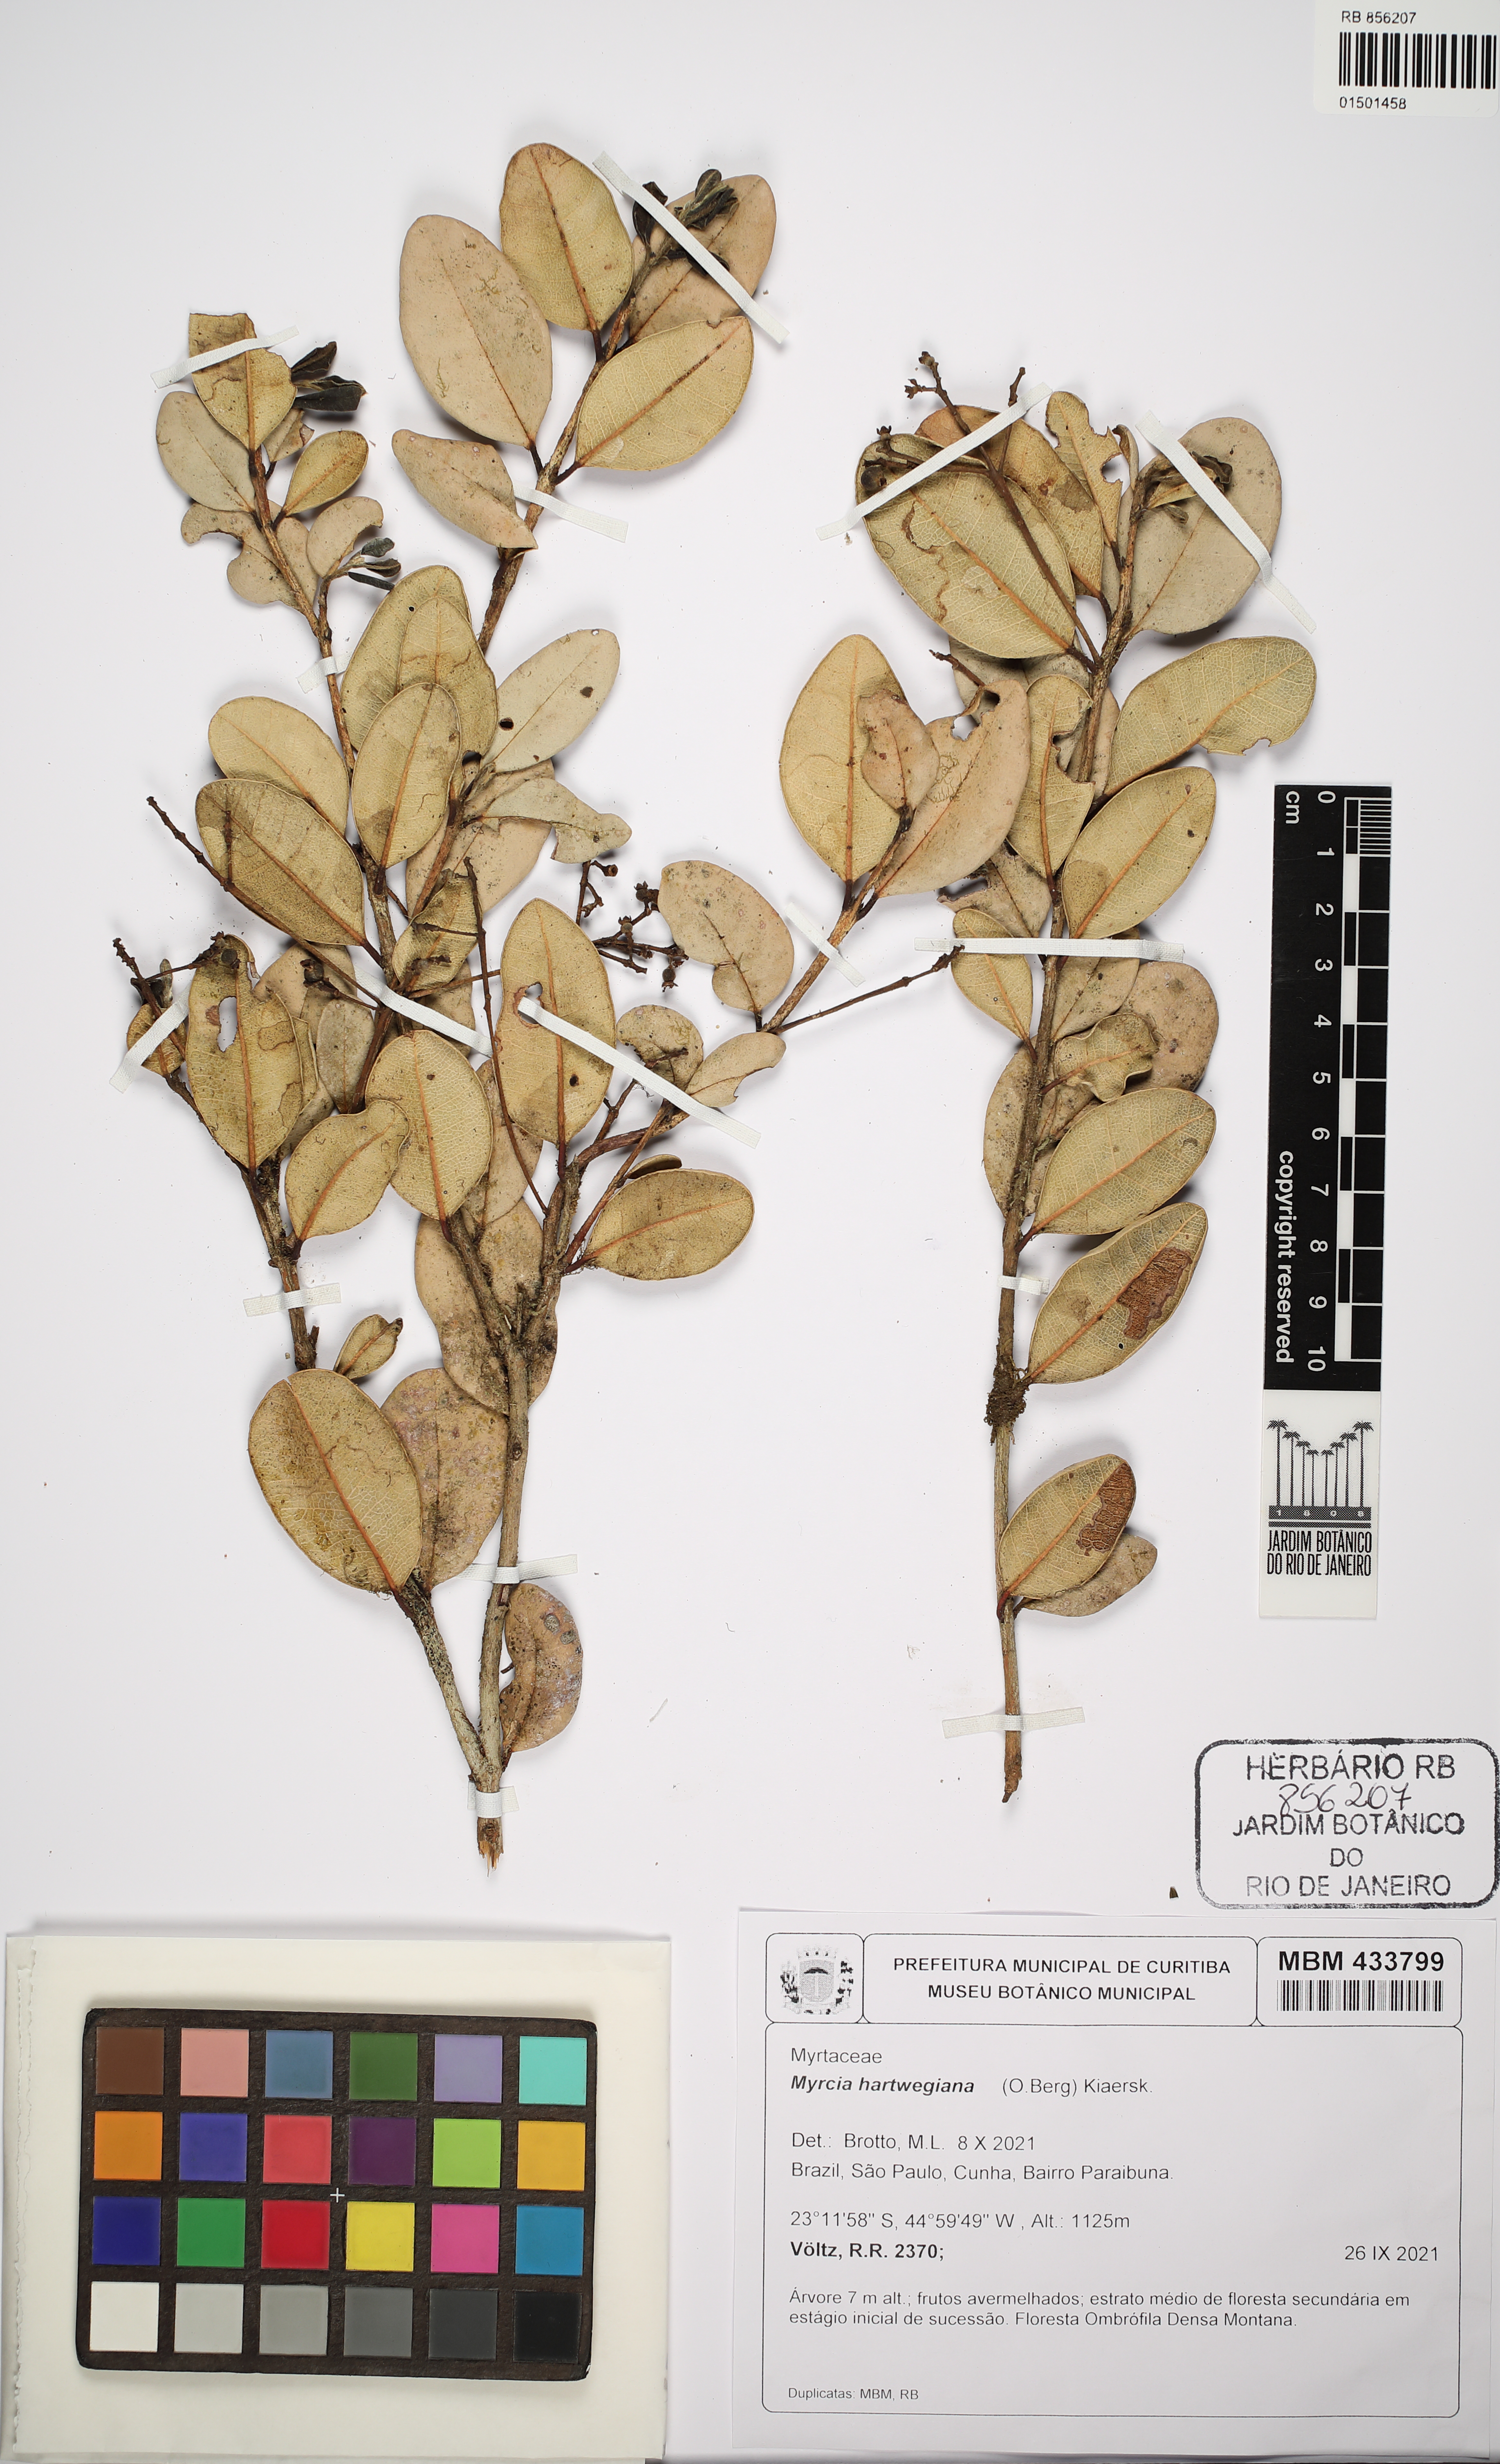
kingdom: Plantae
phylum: Tracheophyta
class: Magnoliopsida
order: Myrtales
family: Myrtaceae
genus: Myrcia
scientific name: Myrcia hartwegiana
